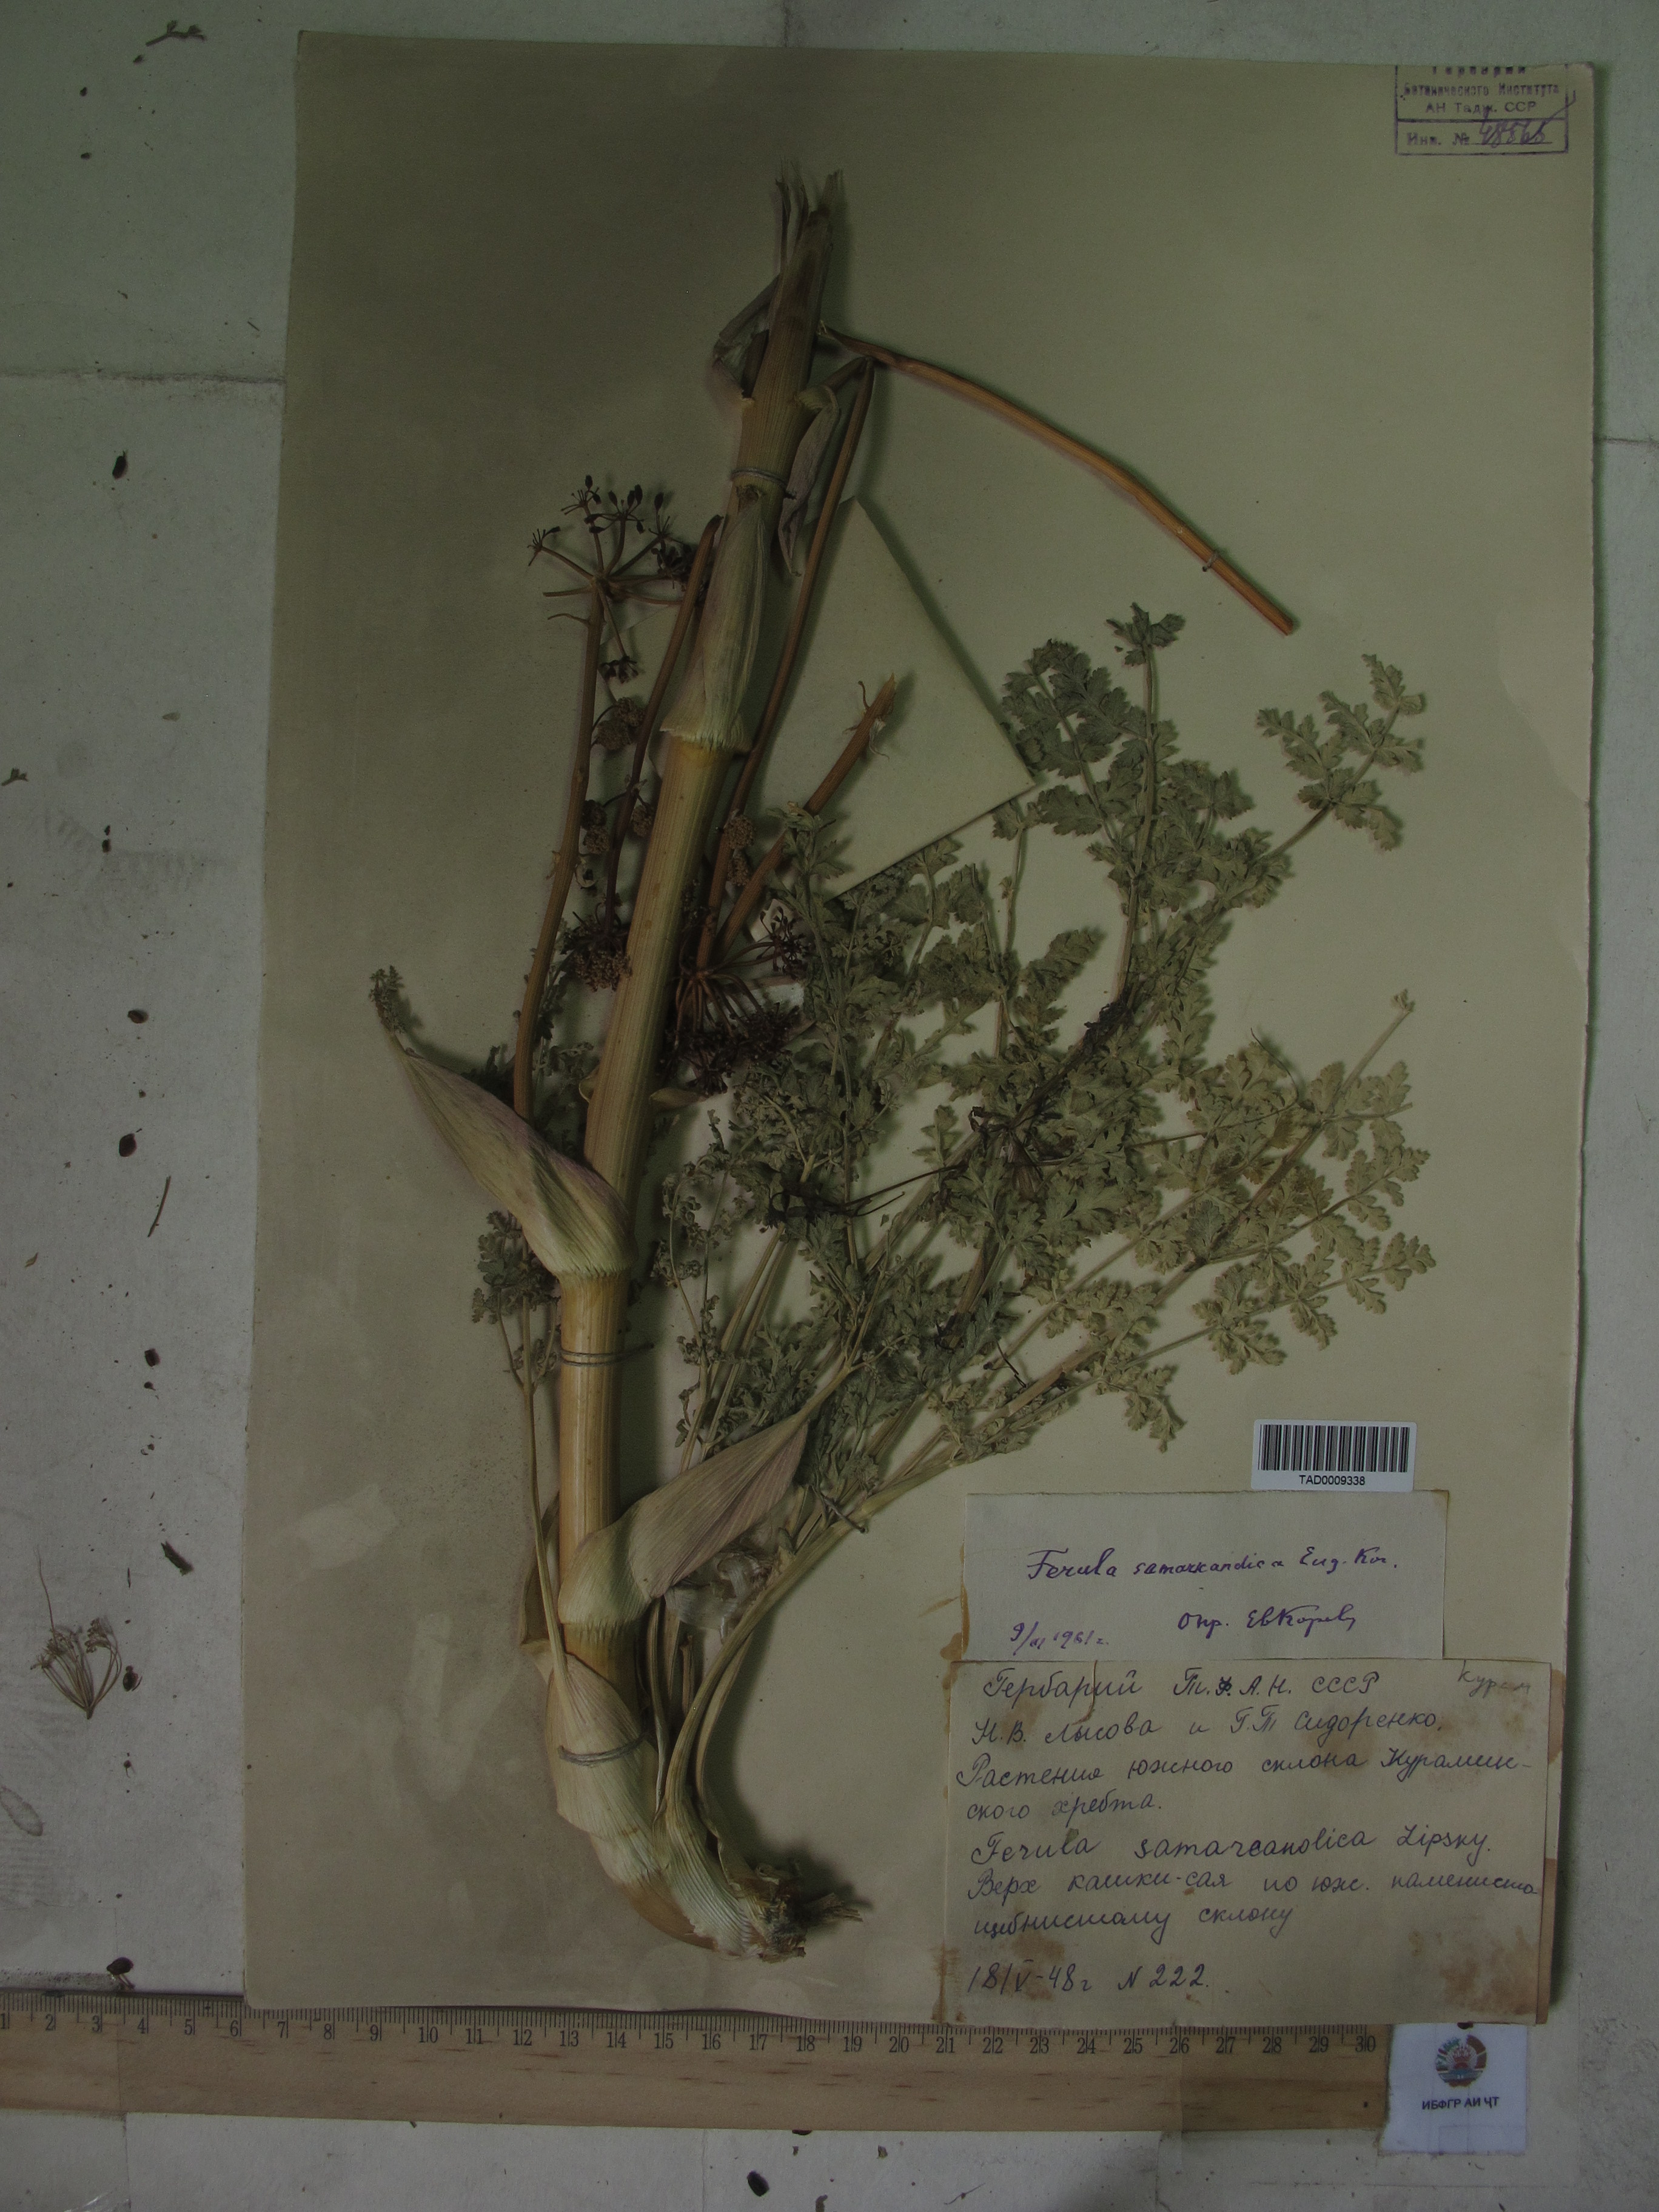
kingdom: Plantae
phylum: Tracheophyta
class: Magnoliopsida
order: Apiales
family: Apiaceae
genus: Ferula
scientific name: Ferula samarkandica
